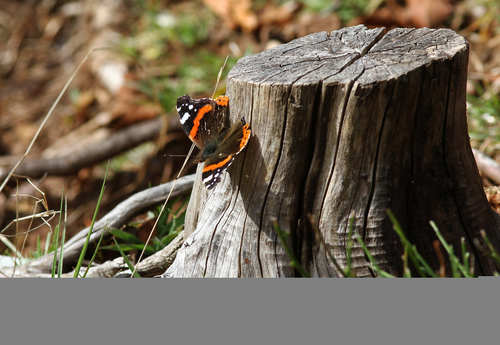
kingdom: Animalia
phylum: Arthropoda
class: Insecta
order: Lepidoptera
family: Nymphalidae
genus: Vanessa
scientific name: Vanessa atalanta
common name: Red admiral
